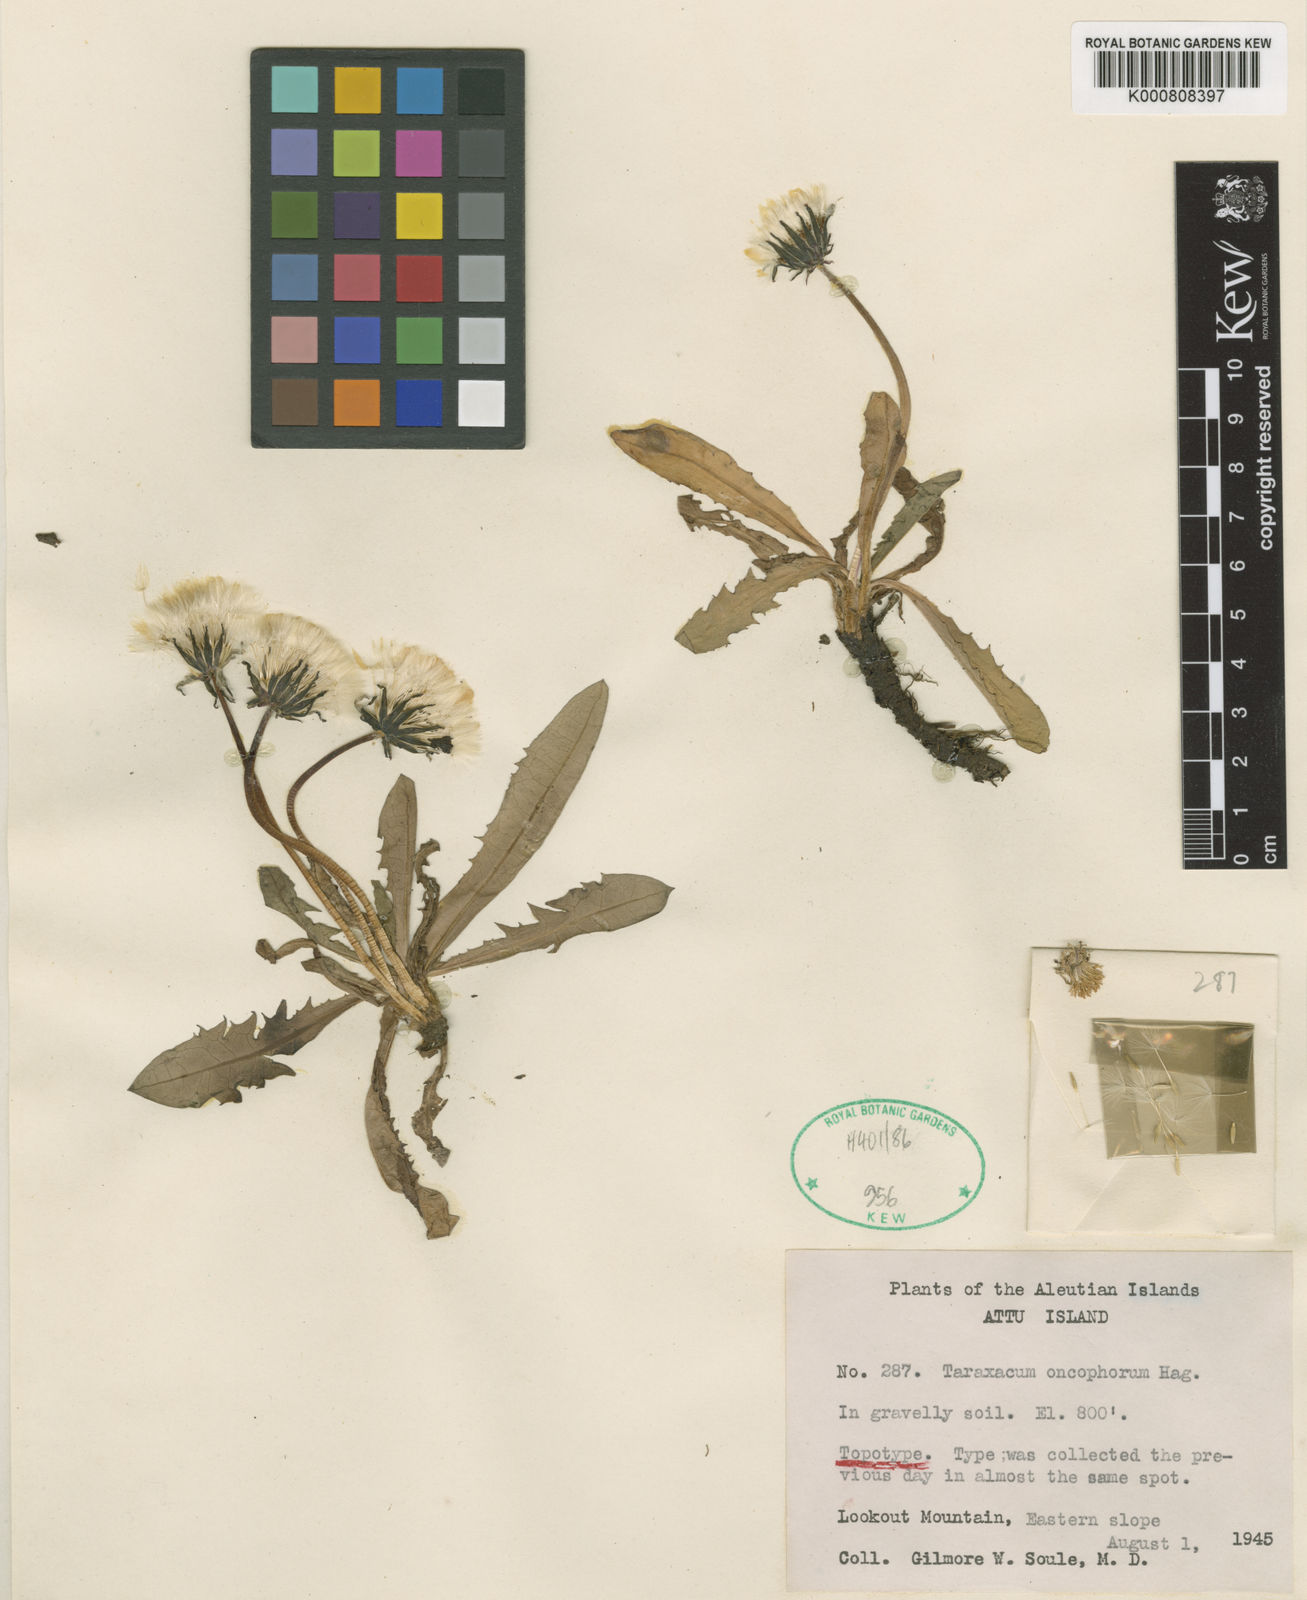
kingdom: Plantae
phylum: Tracheophyta
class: Magnoliopsida
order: Asterales
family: Asteraceae
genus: Taraxacum
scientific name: Taraxacum oncophorum
